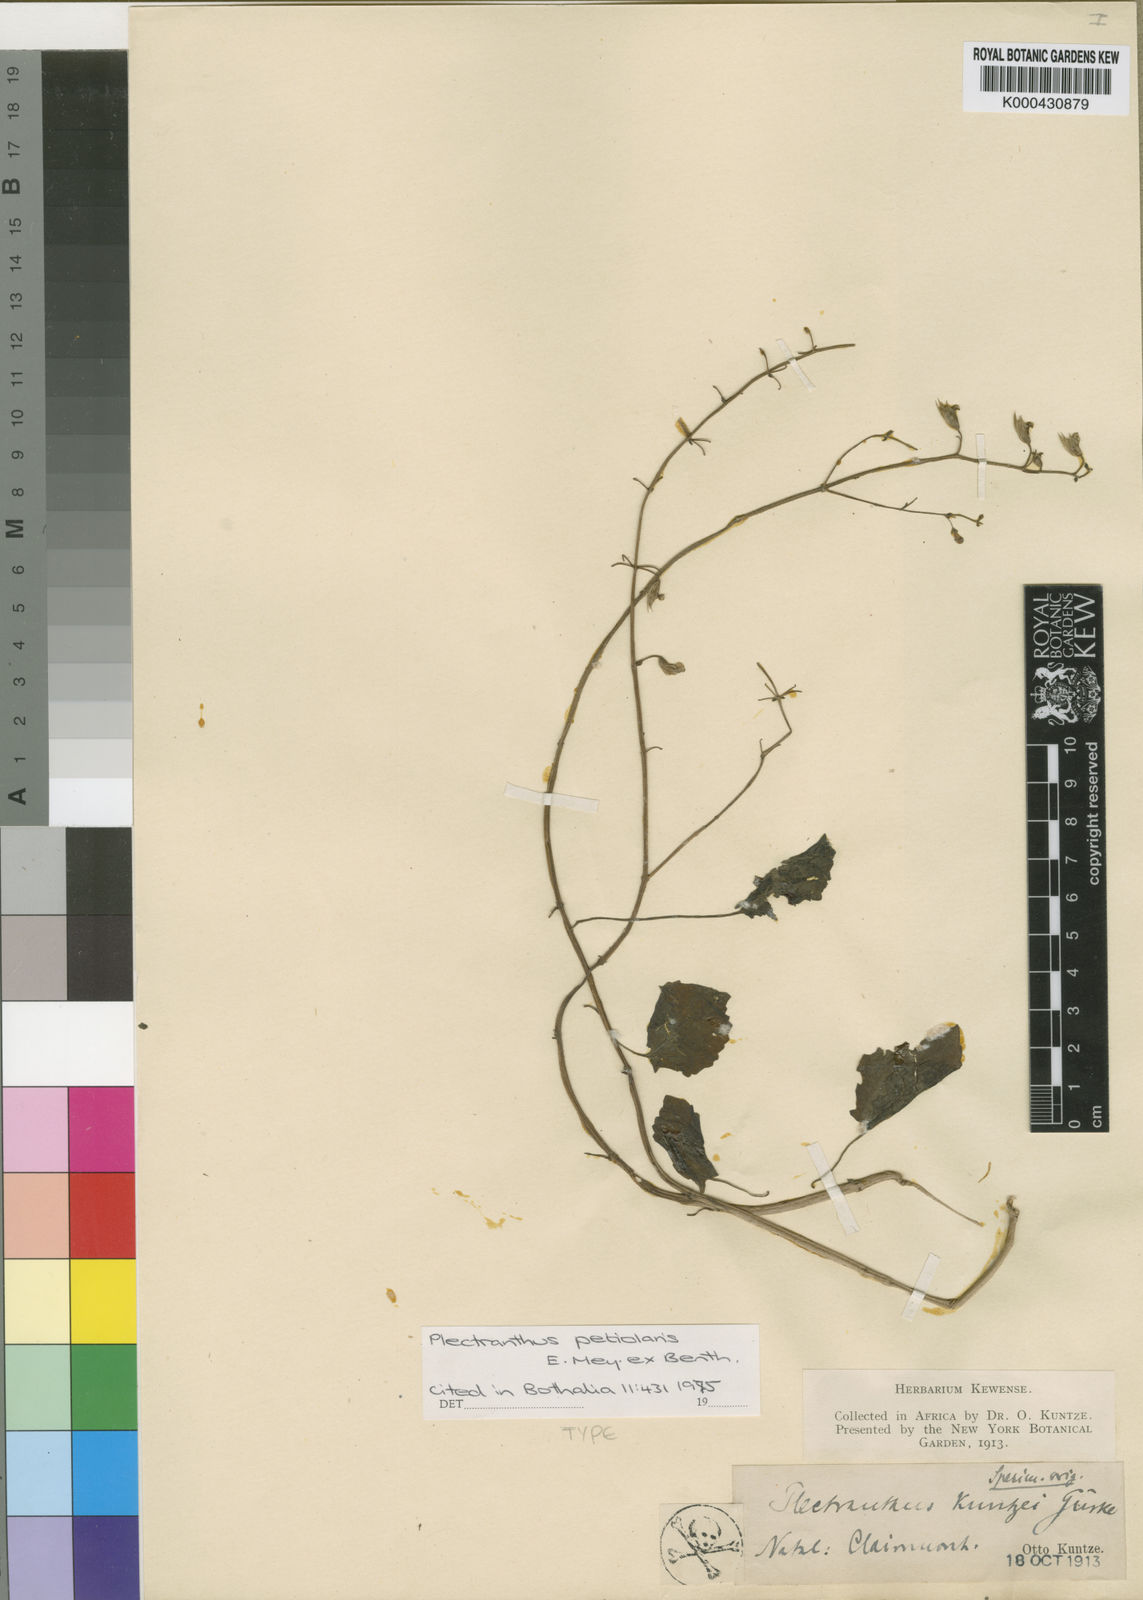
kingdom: Plantae
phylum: Tracheophyta
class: Magnoliopsida
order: Lamiales
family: Lamiaceae
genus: Equilabium
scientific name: Equilabium petiolare
